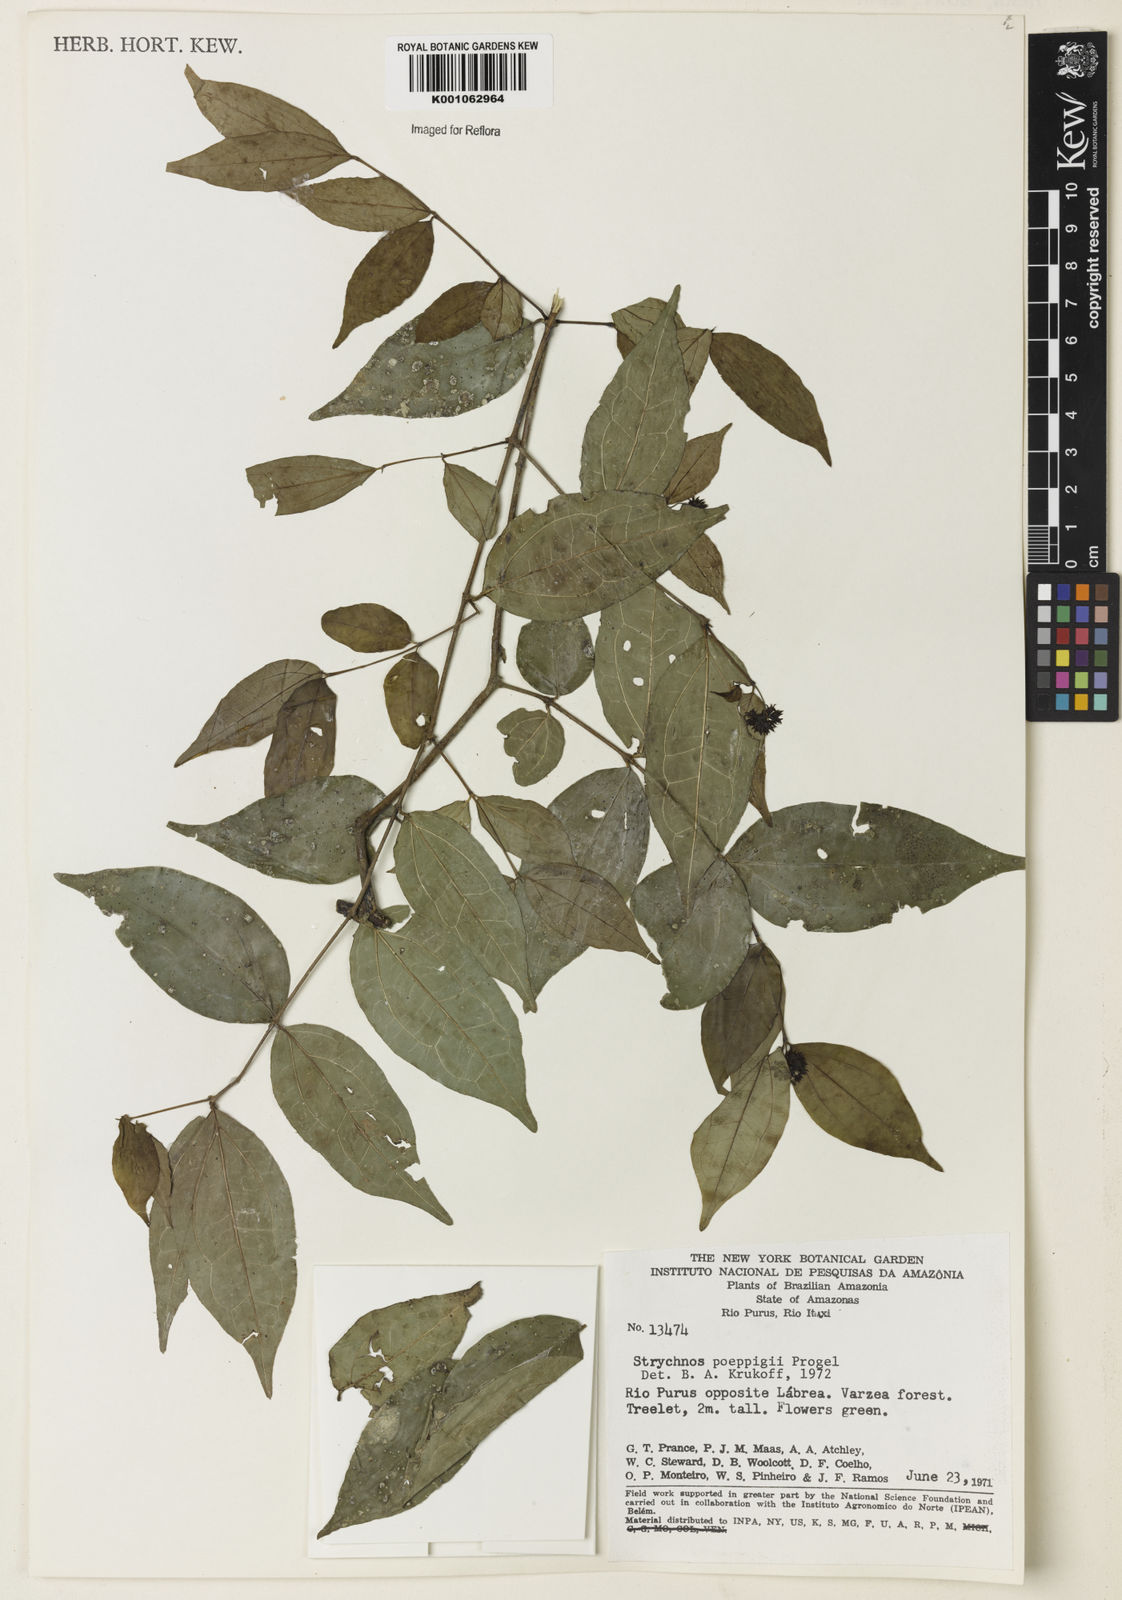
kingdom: Plantae
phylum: Tracheophyta
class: Magnoliopsida
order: Gentianales
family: Loganiaceae
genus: Strychnos
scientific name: Strychnos poeppigii
